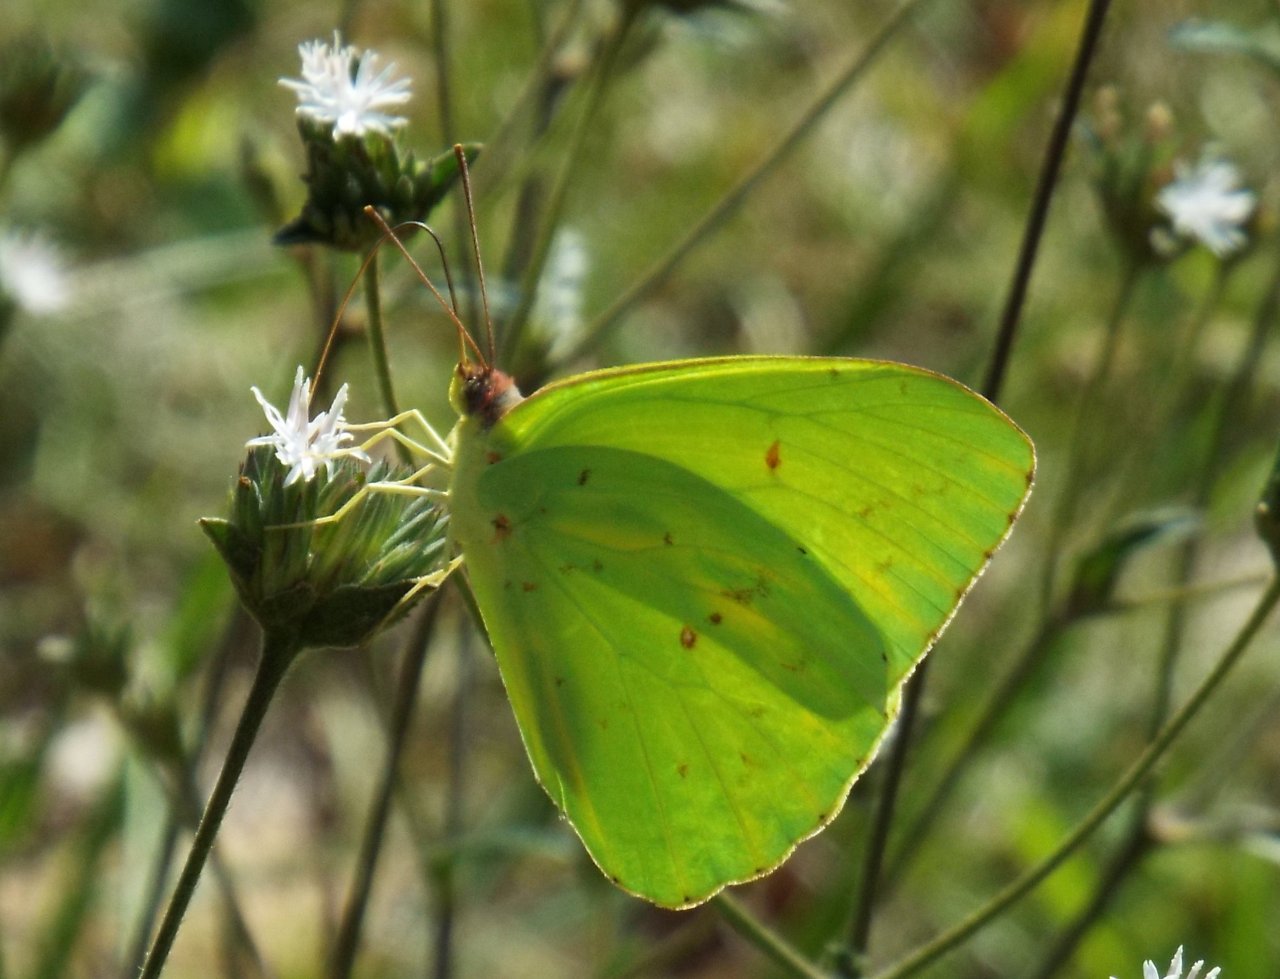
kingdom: Animalia
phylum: Arthropoda
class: Insecta
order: Lepidoptera
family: Pieridae
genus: Phoebis
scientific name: Phoebis sennae
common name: Cloudless Sulphur
